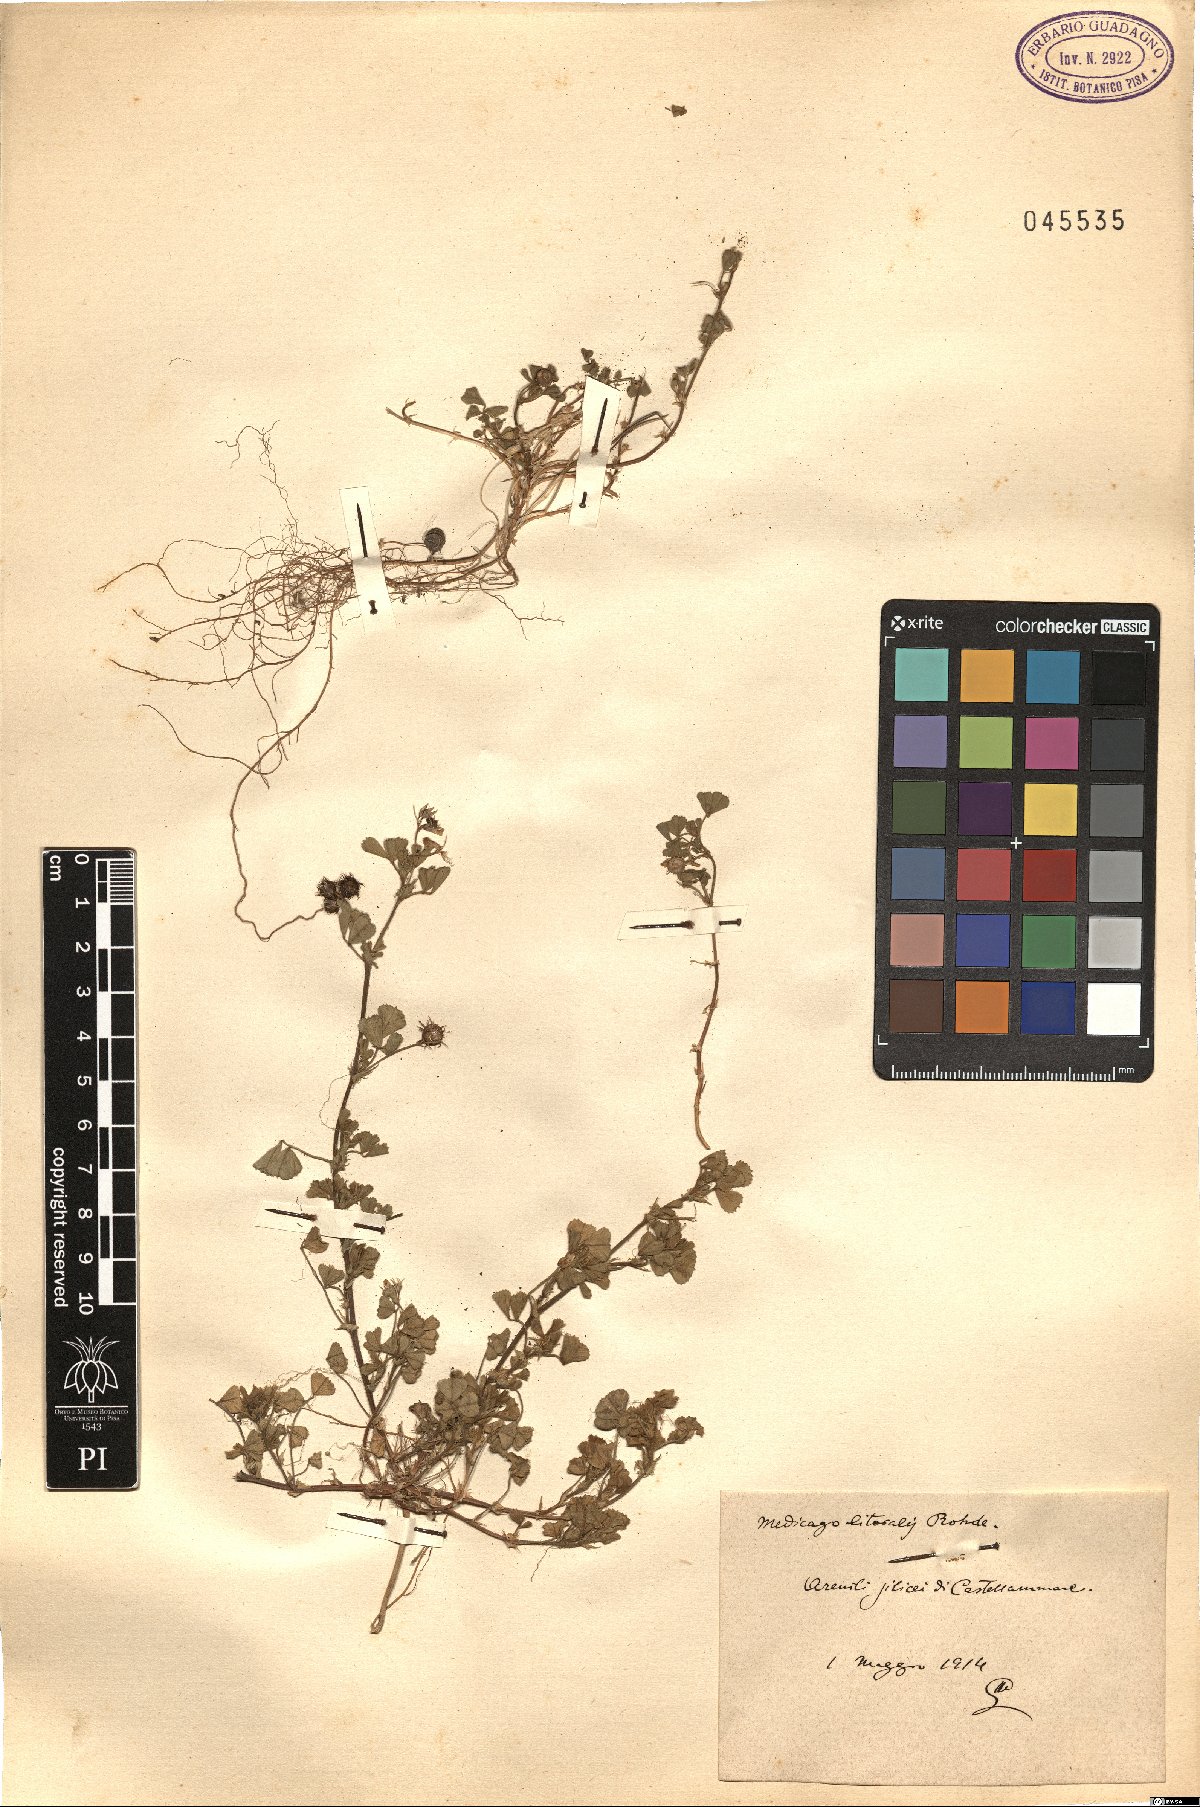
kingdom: Plantae
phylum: Tracheophyta
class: Magnoliopsida
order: Fabales
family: Fabaceae
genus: Medicago
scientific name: Medicago littoralis
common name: Shore medick
